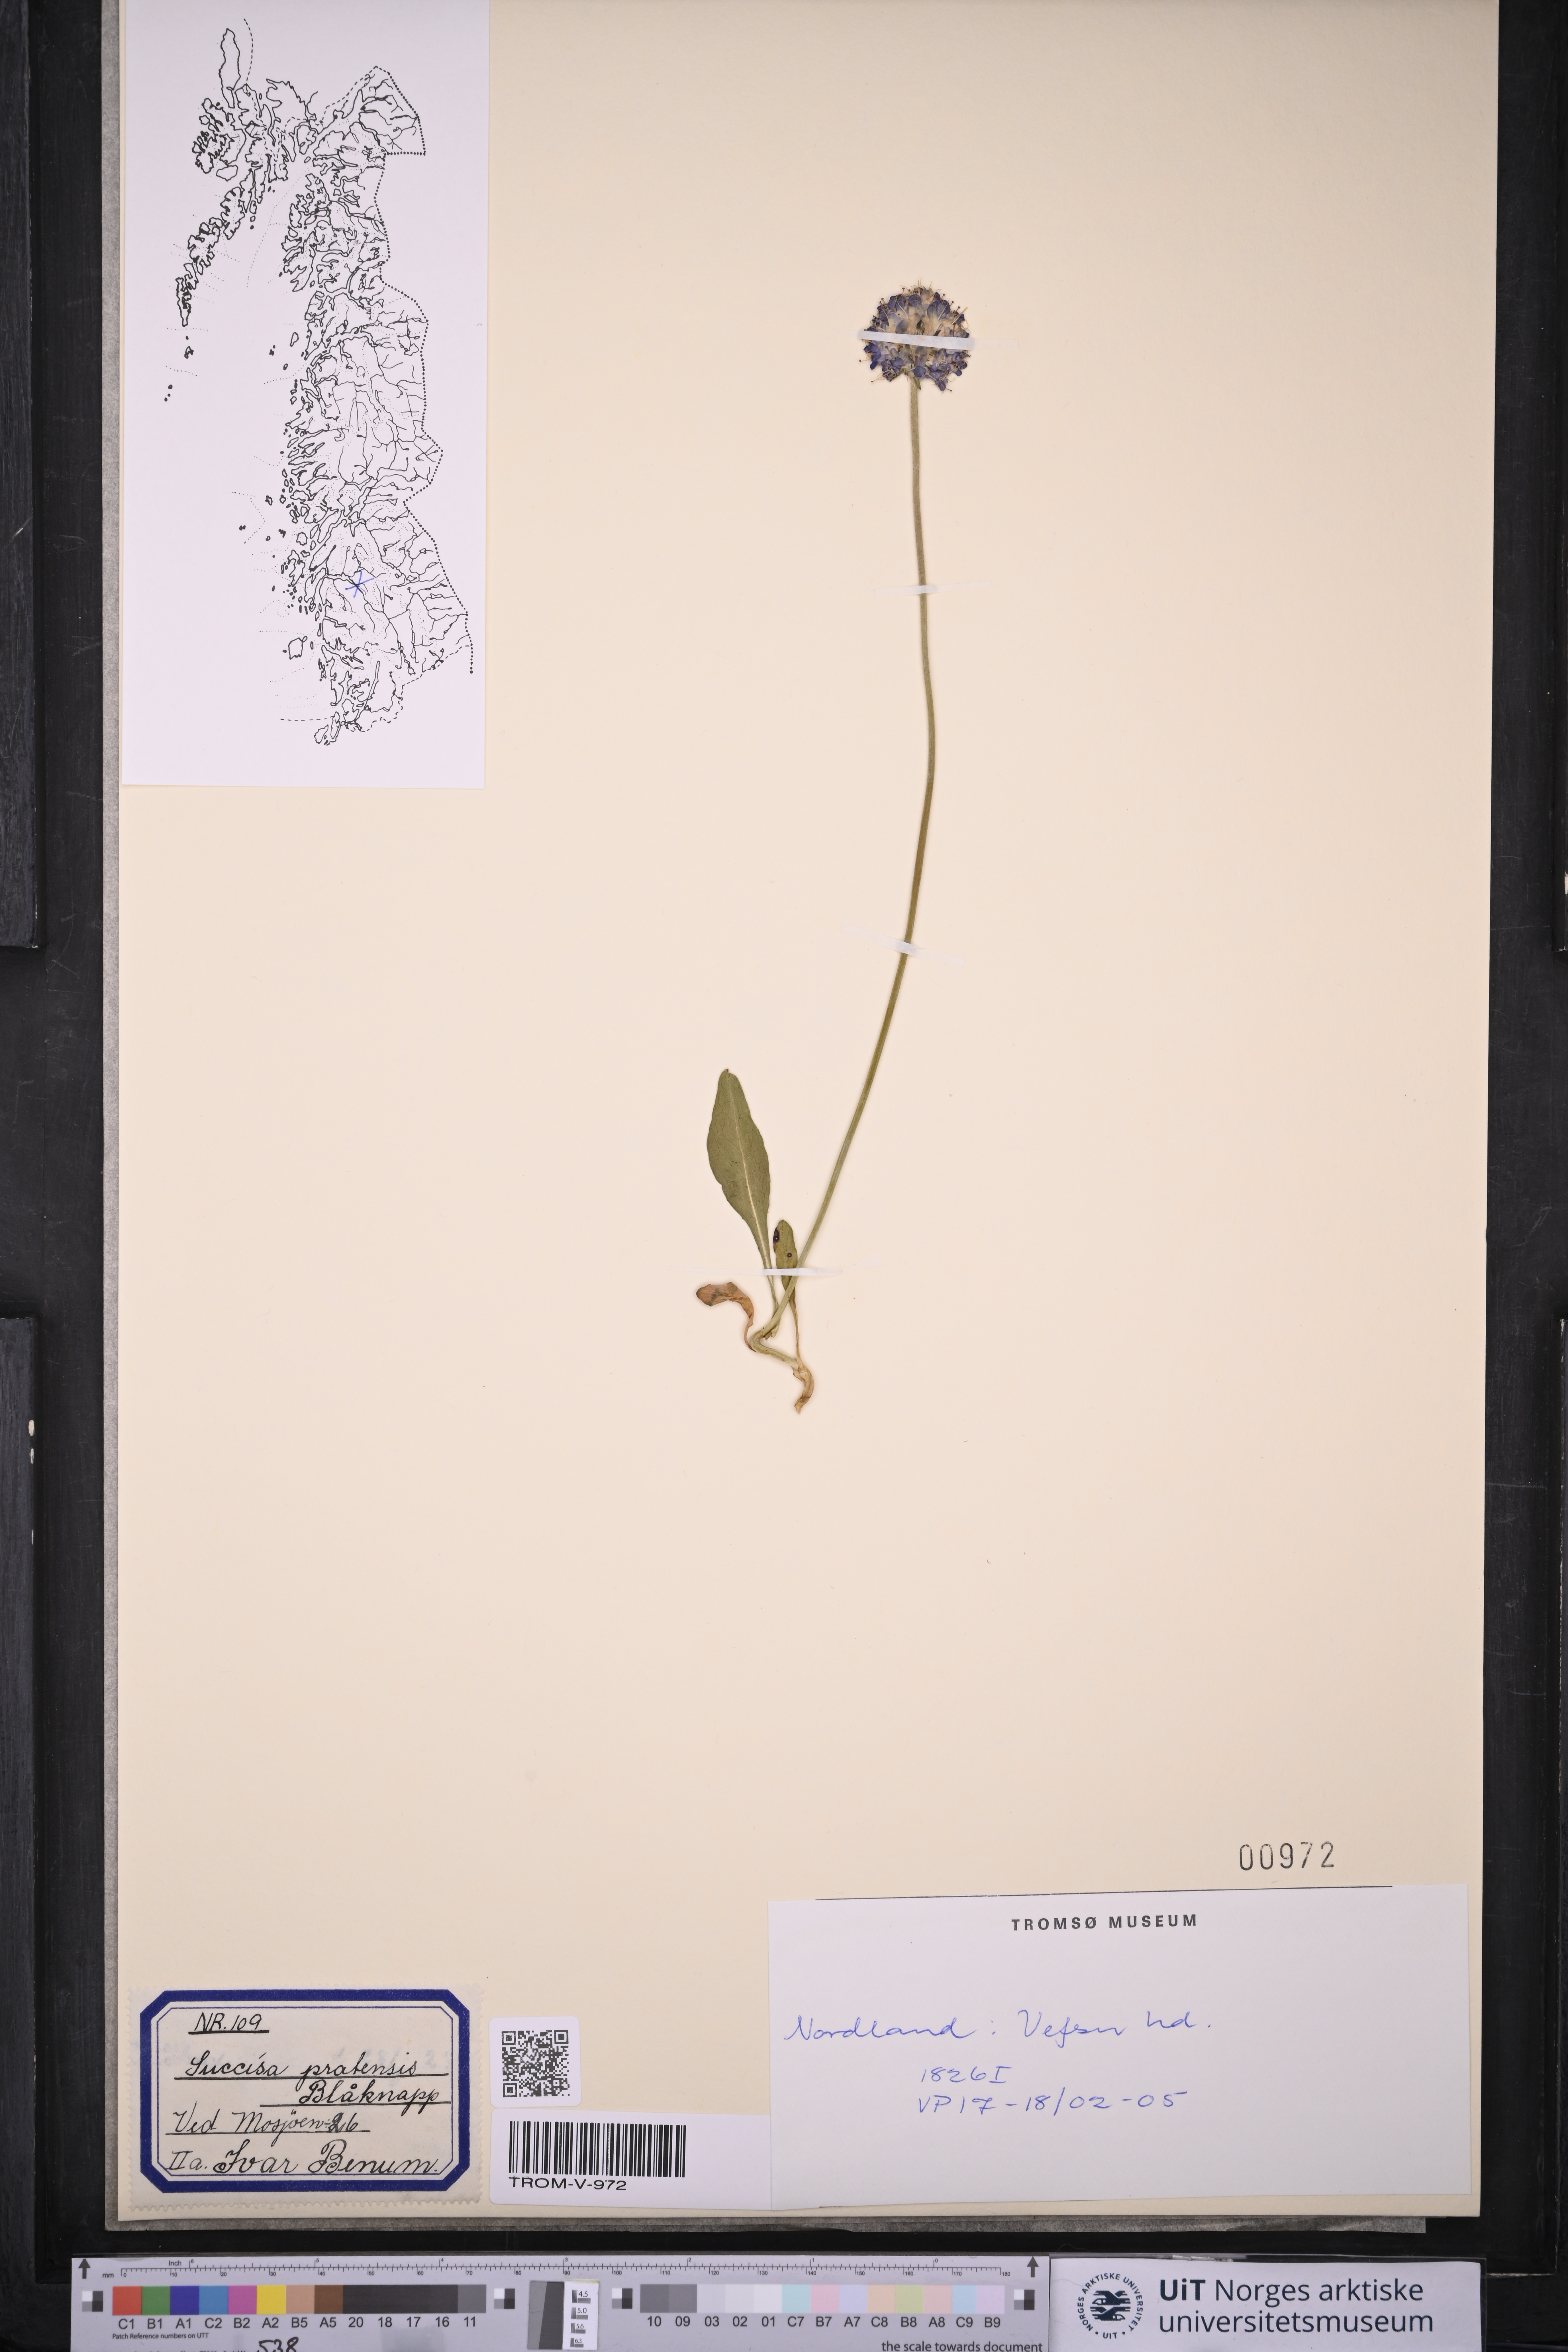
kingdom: Plantae
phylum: Tracheophyta
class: Magnoliopsida
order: Dipsacales
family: Caprifoliaceae
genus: Succisa
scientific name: Succisa pratensis
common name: Devil's-bit
